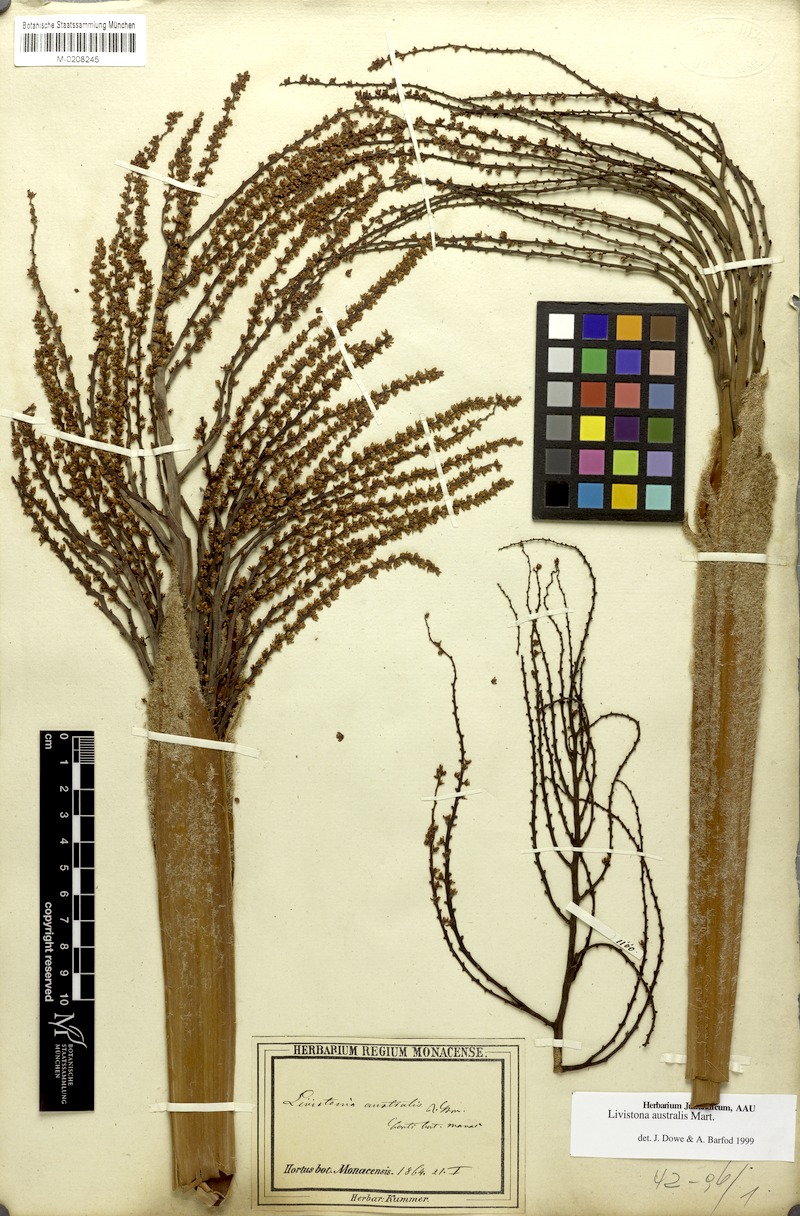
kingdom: Plantae
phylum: Tracheophyta
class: Liliopsida
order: Arecales
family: Arecaceae
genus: Livistona
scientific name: Livistona australis
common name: Cabbage fan palm
